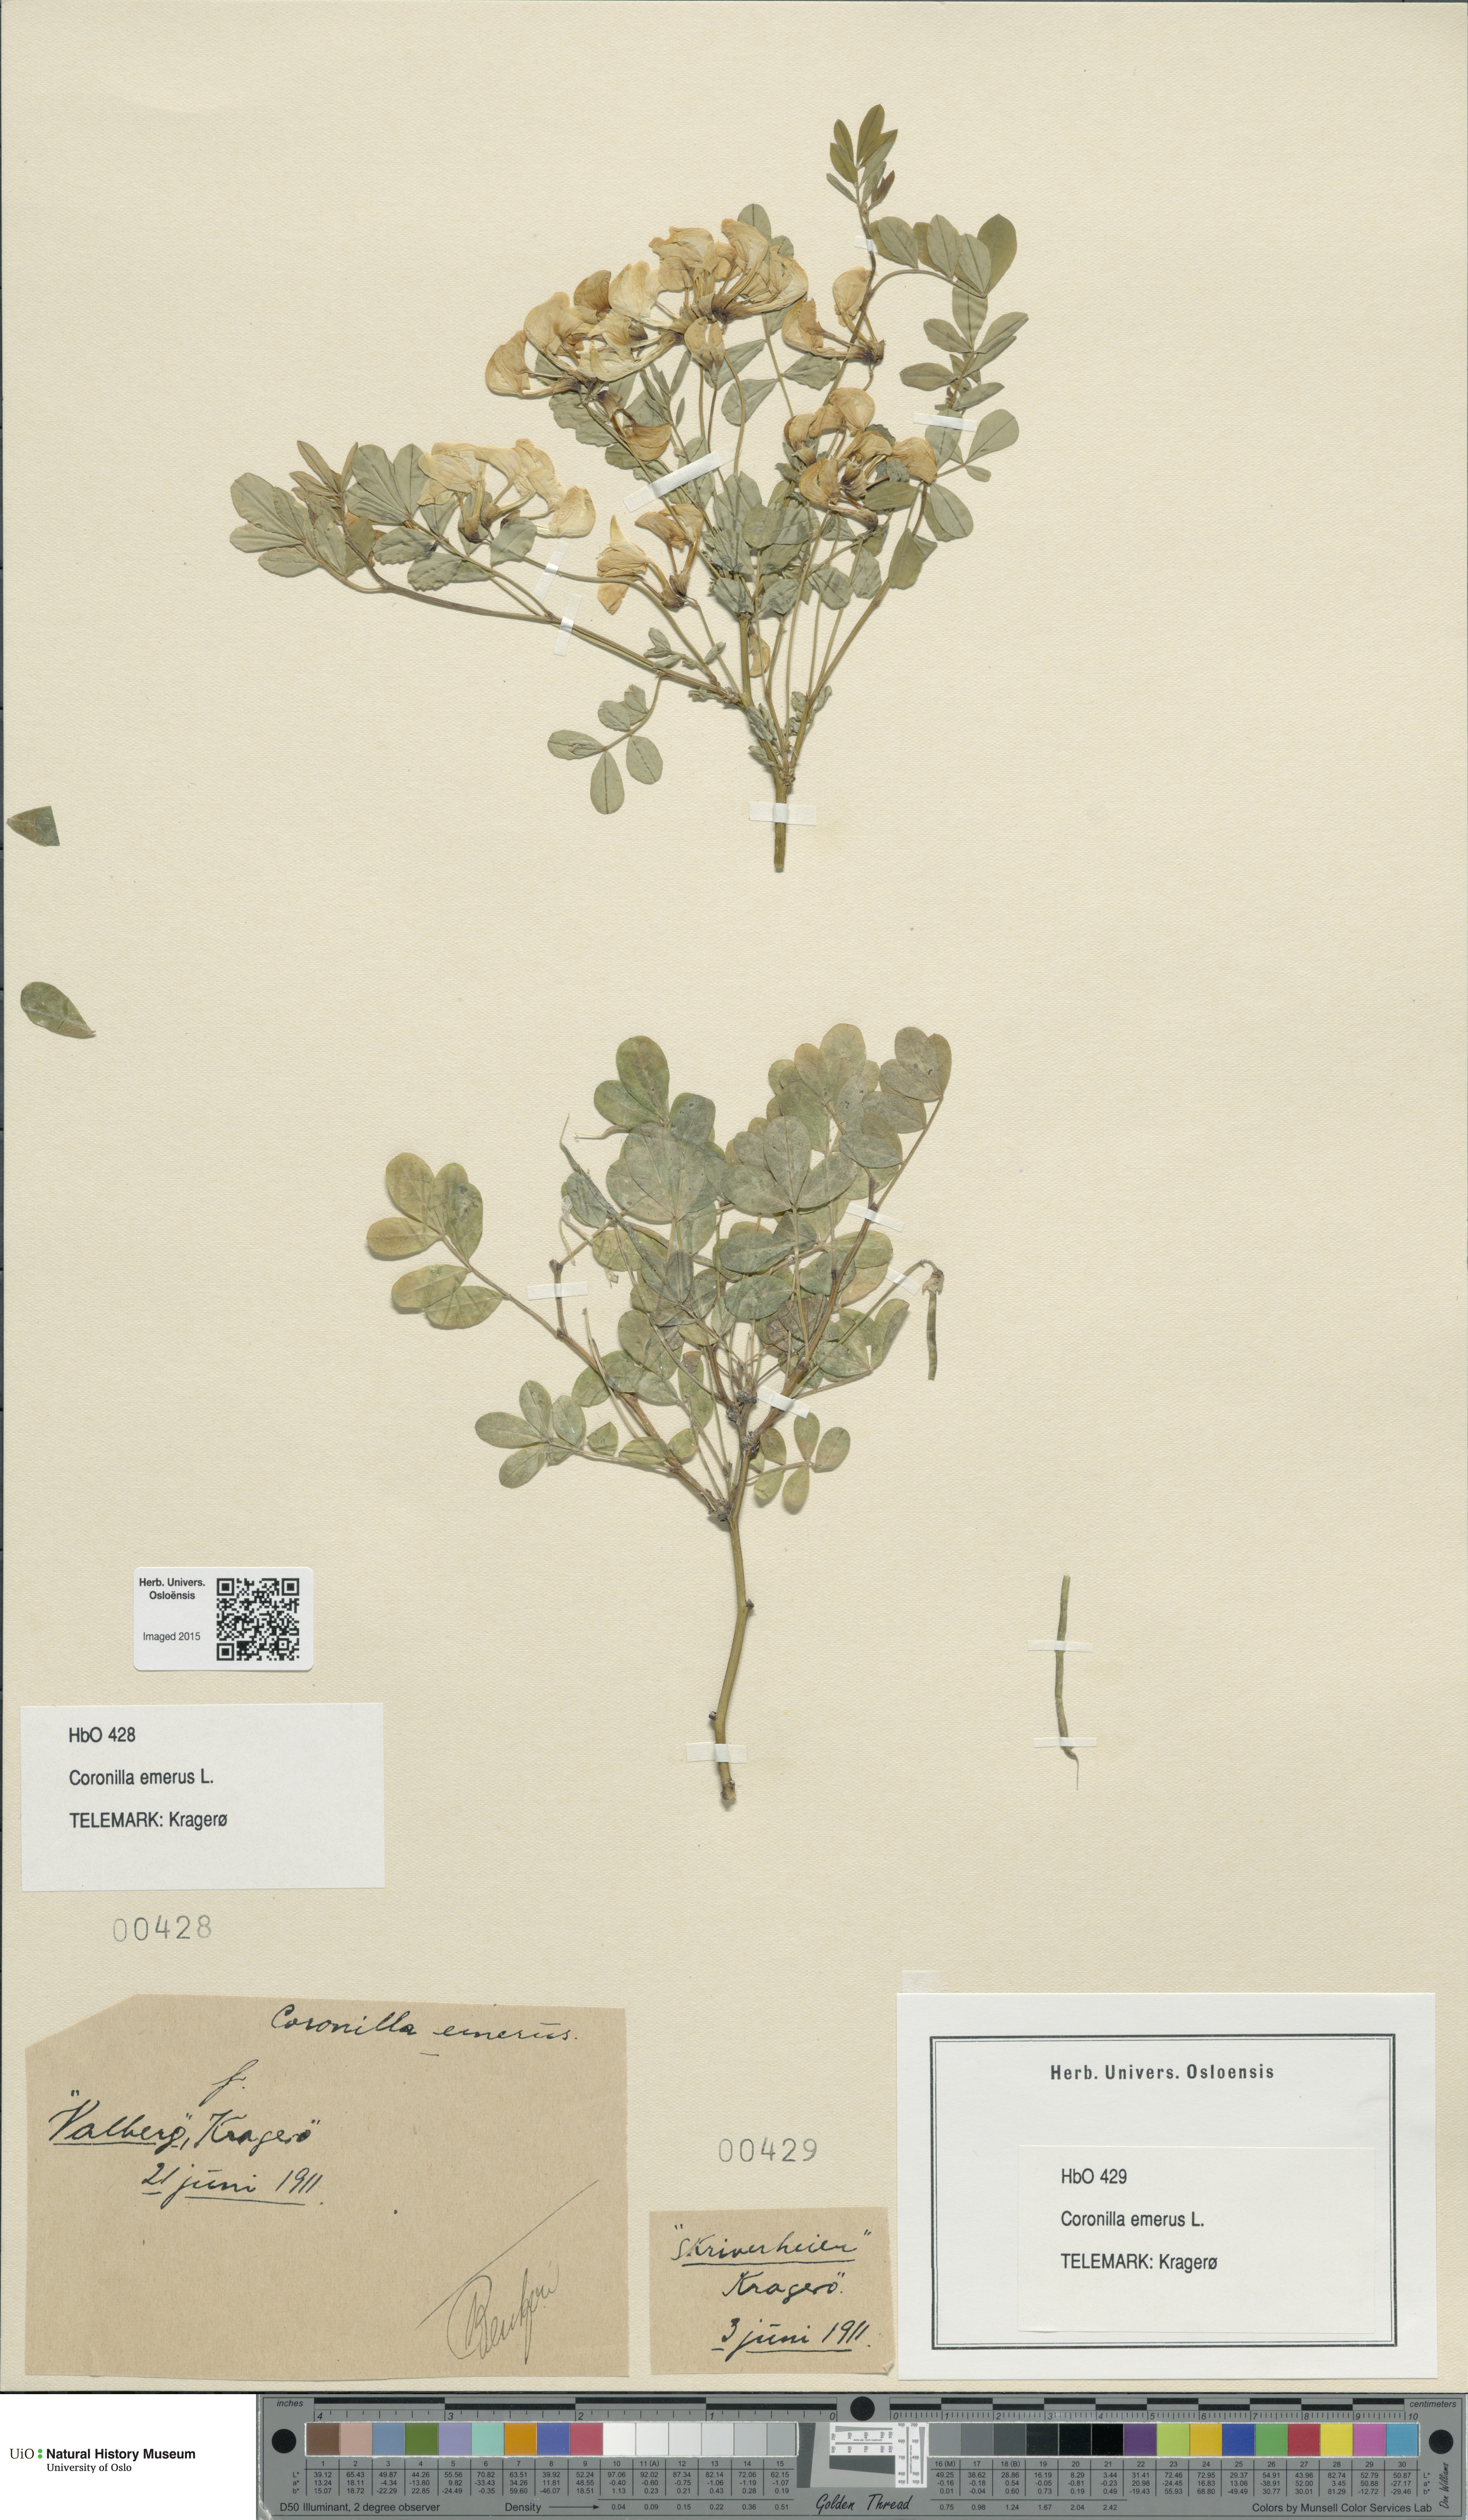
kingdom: Plantae
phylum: Tracheophyta
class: Magnoliopsida
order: Fabales
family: Fabaceae
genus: Hippocrepis
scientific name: Hippocrepis emerus
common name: Scorpion senna
